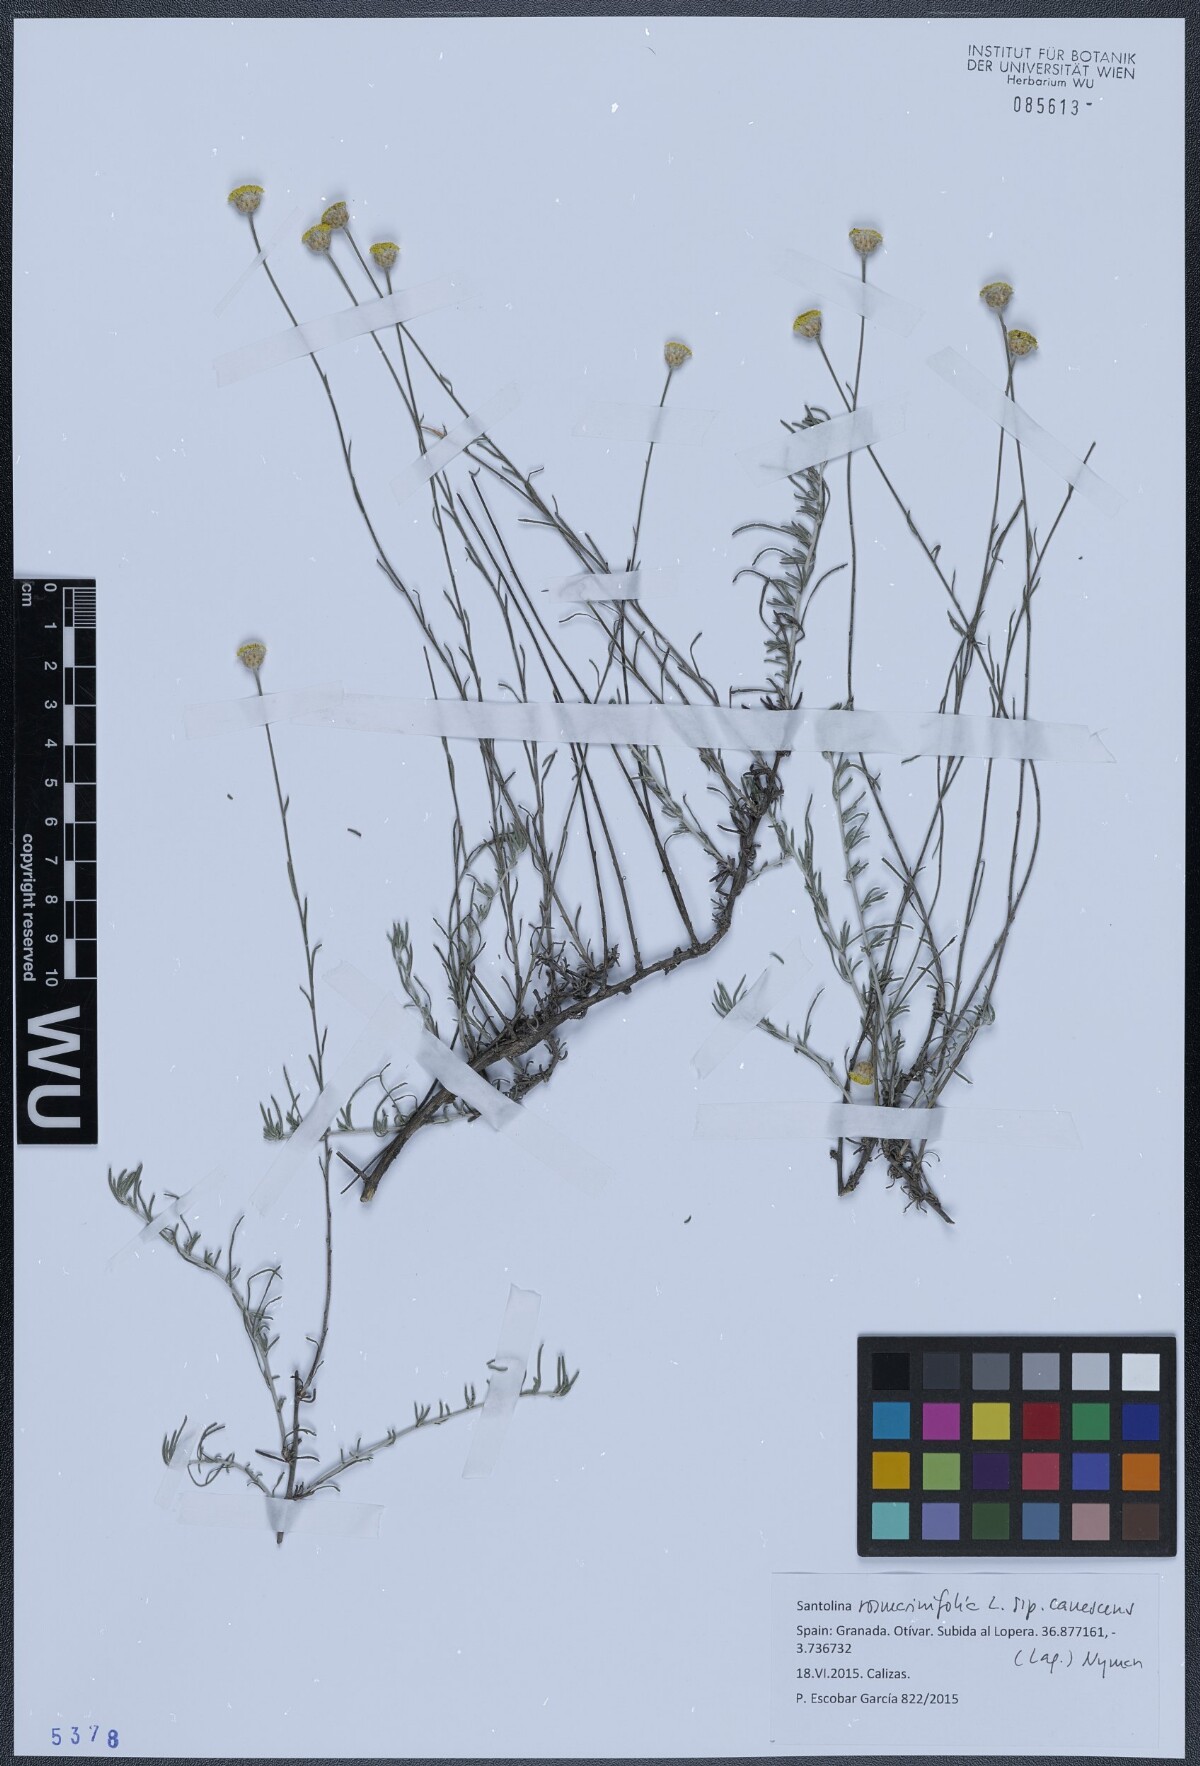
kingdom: Plantae
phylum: Tracheophyta
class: Magnoliopsida
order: Asterales
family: Asteraceae
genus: Santolina
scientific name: Santolina canescens
